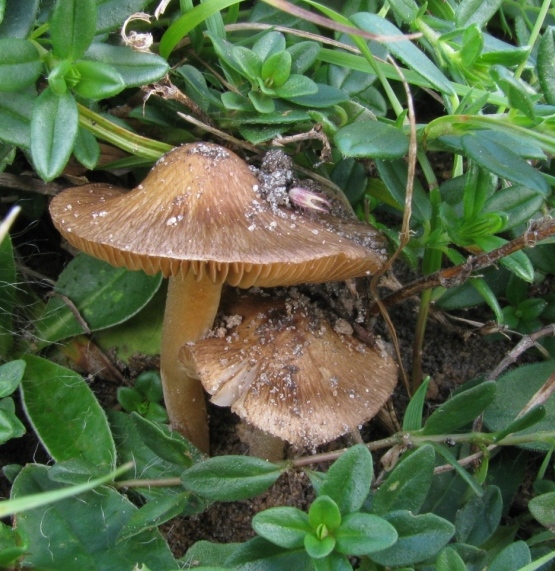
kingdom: Fungi
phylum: Basidiomycota
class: Agaricomycetes
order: Agaricales
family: Inocybaceae
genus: Inocybe
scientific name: Inocybe pelargonium
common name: pelargonie-trævlhat
